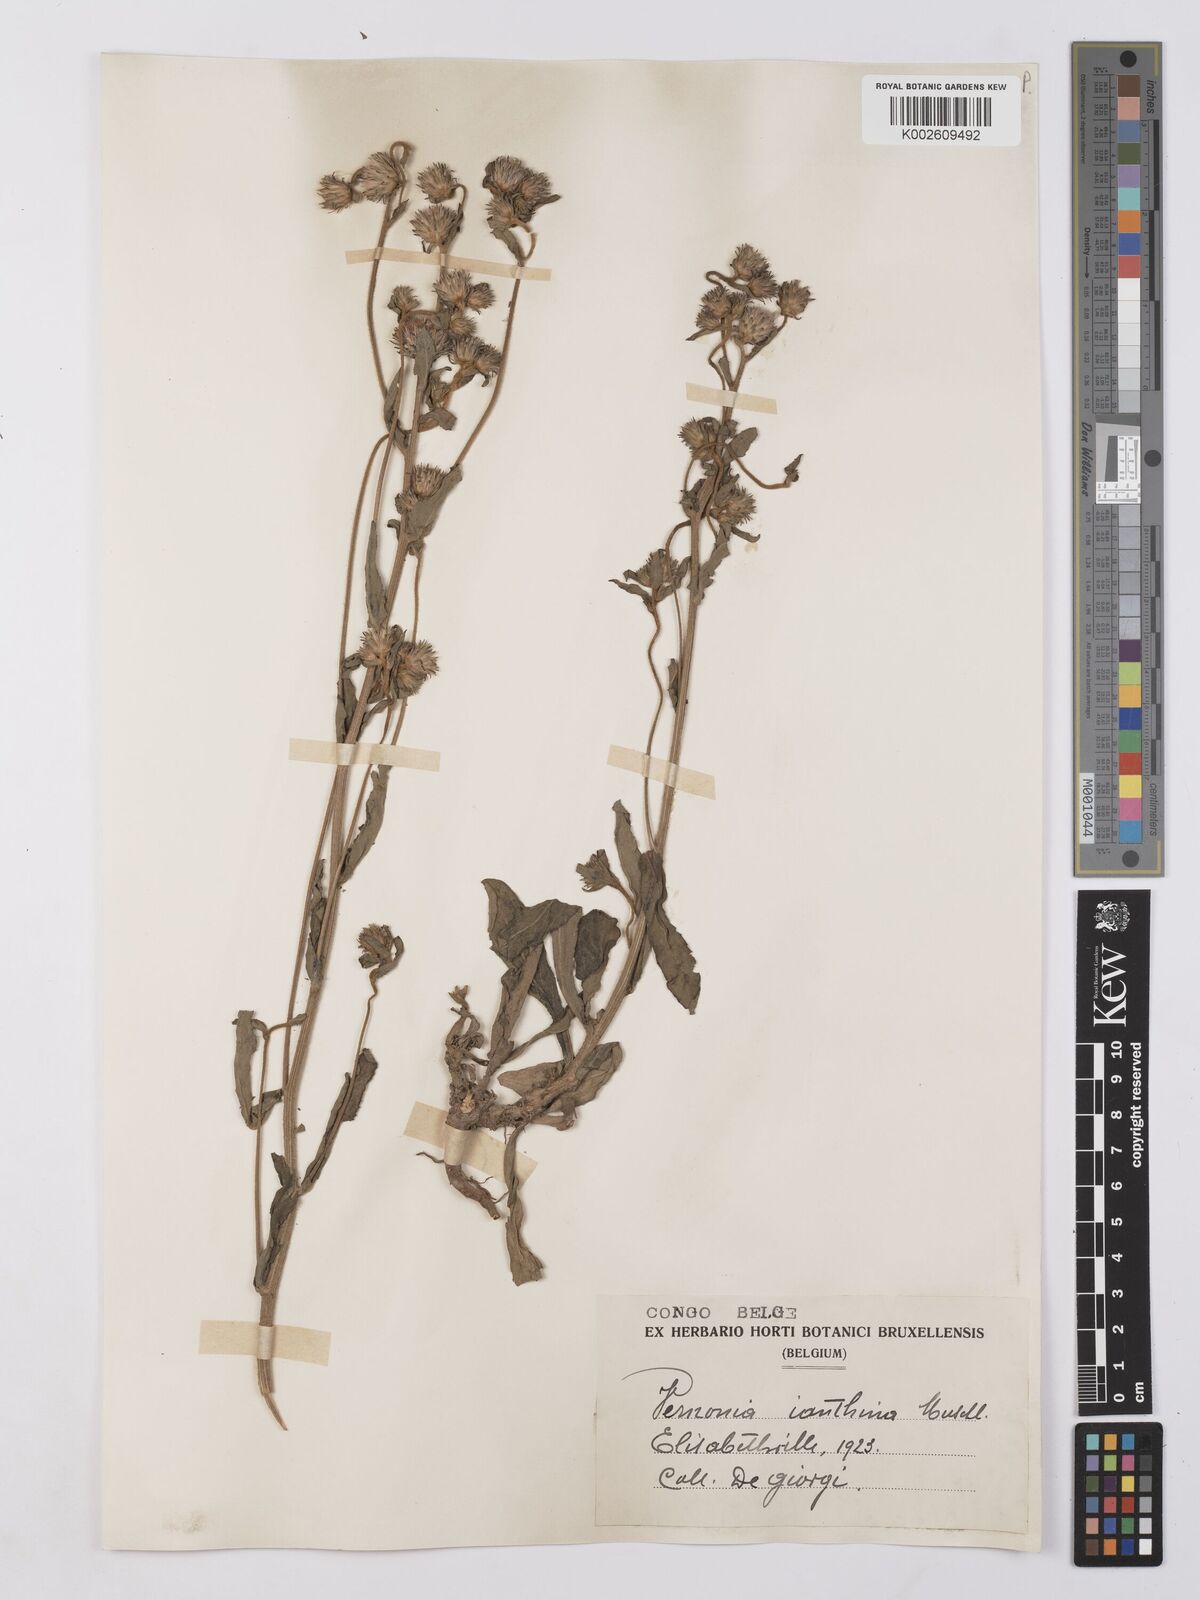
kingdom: Plantae
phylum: Tracheophyta
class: Magnoliopsida
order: Asterales
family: Asteraceae
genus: Vernonia
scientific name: Vernonia
